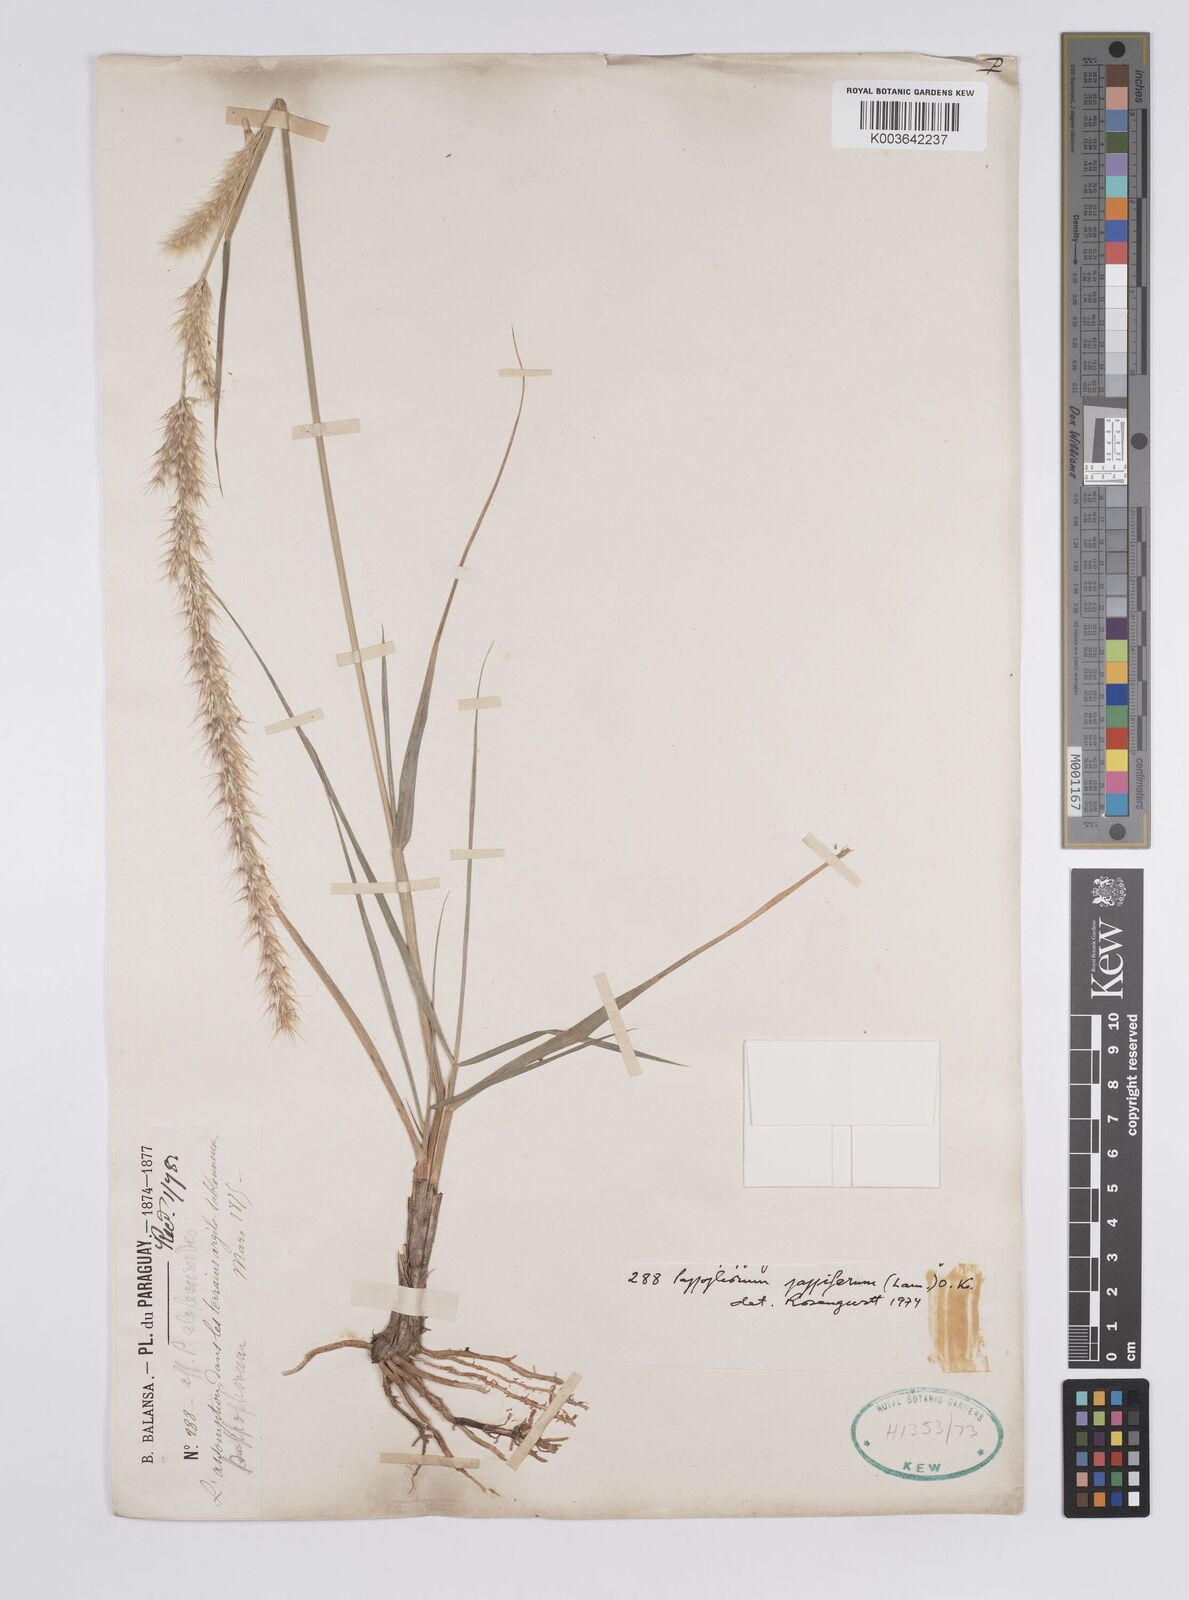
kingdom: Plantae
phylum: Tracheophyta
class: Liliopsida
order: Poales
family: Poaceae
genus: Pappophorum
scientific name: Pappophorum caespitosum
